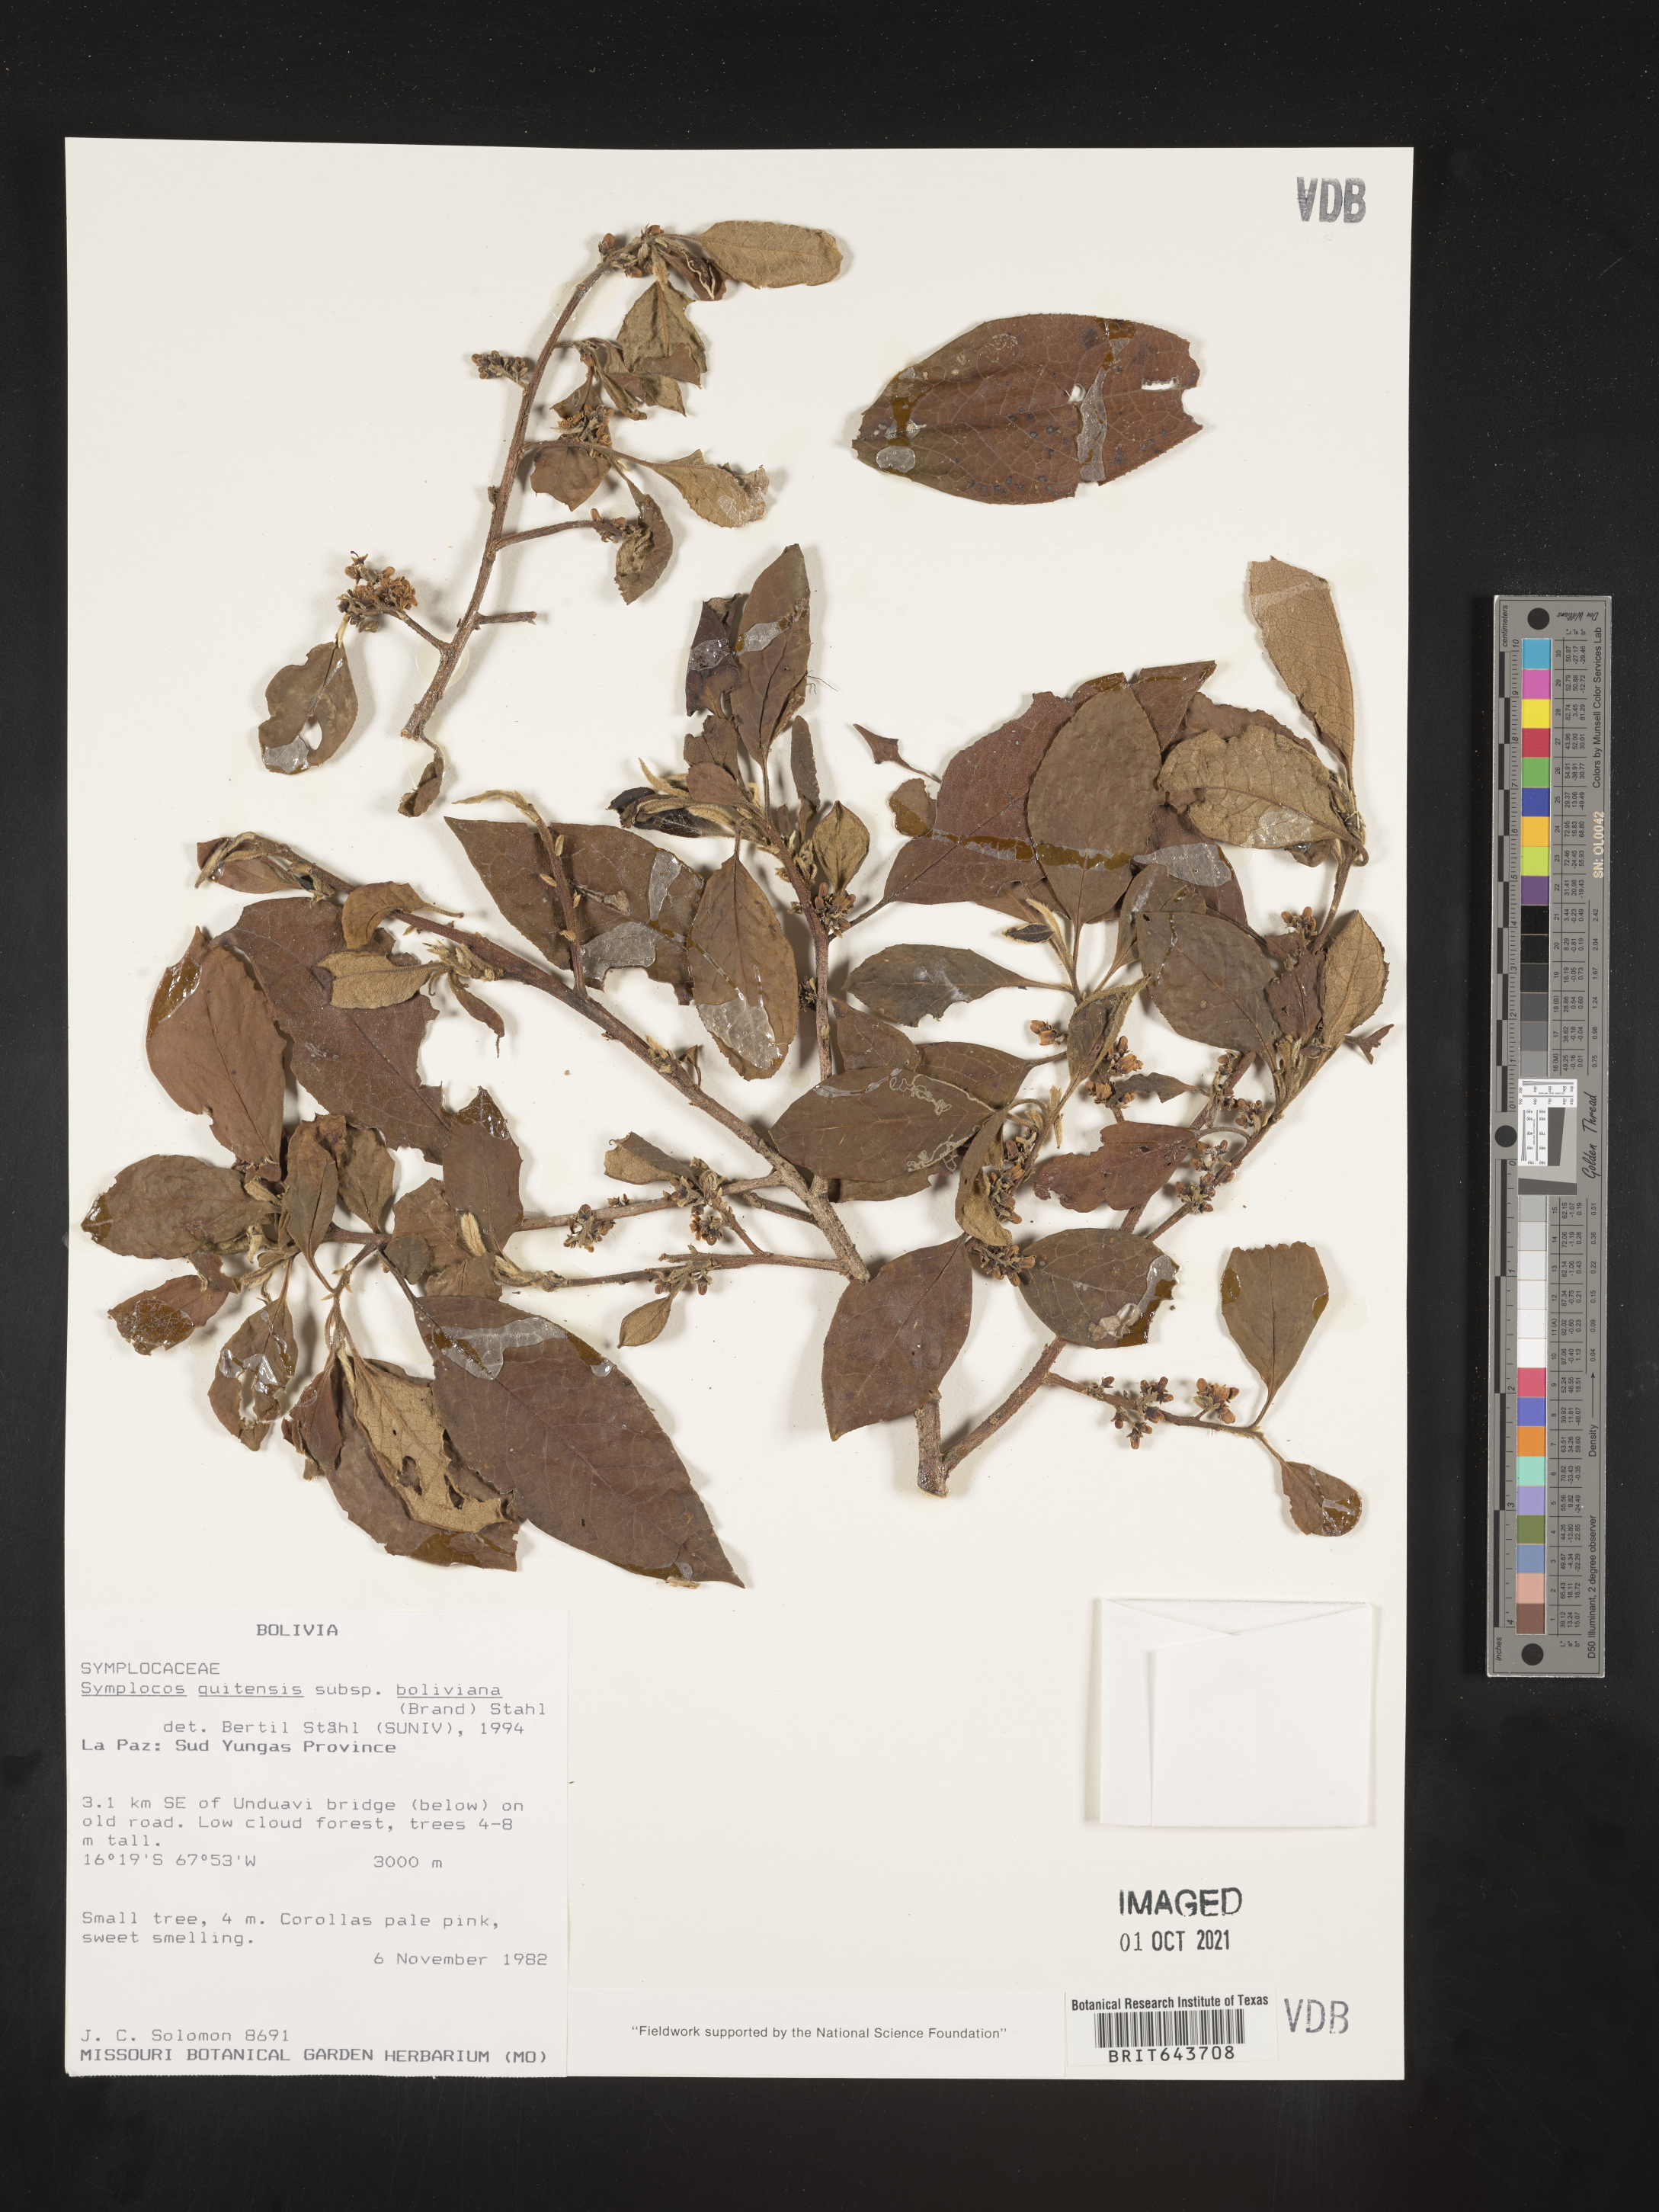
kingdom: Plantae
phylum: Tracheophyta
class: Magnoliopsida
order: Ericales
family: Symplocaceae
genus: Symplocos
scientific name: Symplocos
